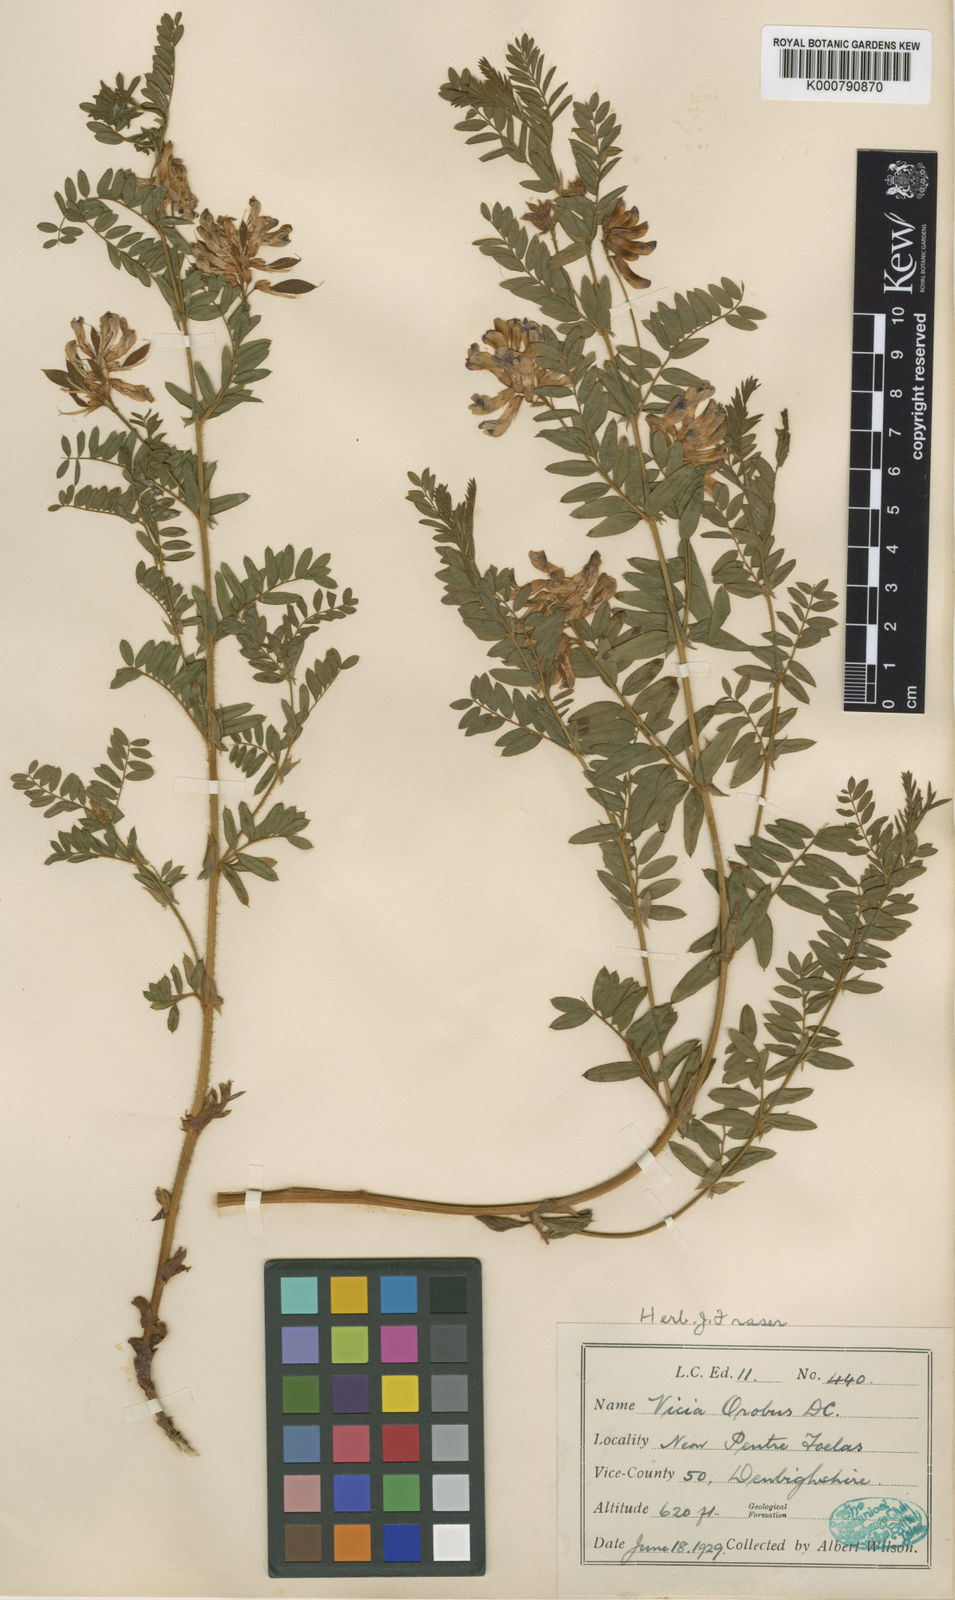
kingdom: Plantae
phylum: Tracheophyta
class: Magnoliopsida
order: Fabales
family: Fabaceae
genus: Vicia
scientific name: Vicia orobus
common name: Wood bitter-vetch
